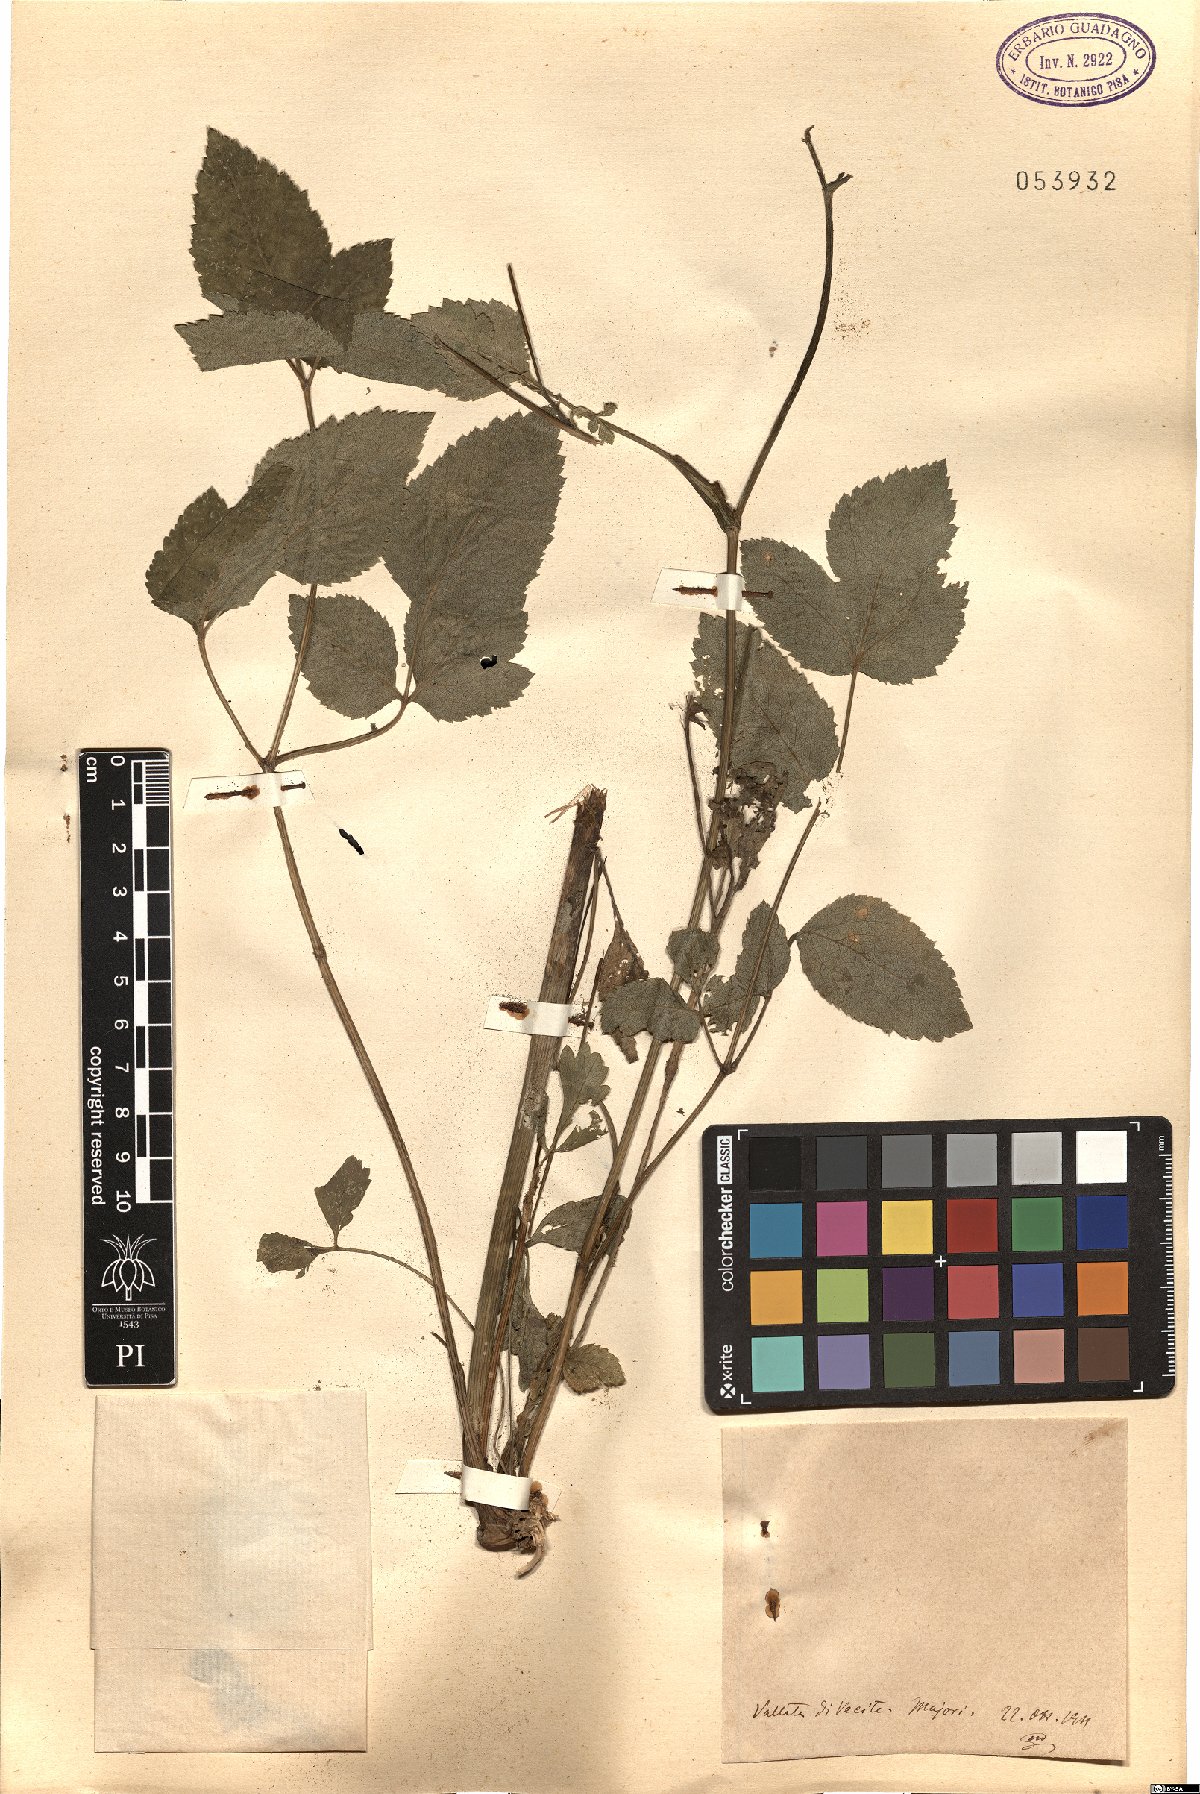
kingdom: Plantae
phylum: Tracheophyta
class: Magnoliopsida
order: Apiales
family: Apiaceae
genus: Angelica
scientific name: Angelica
